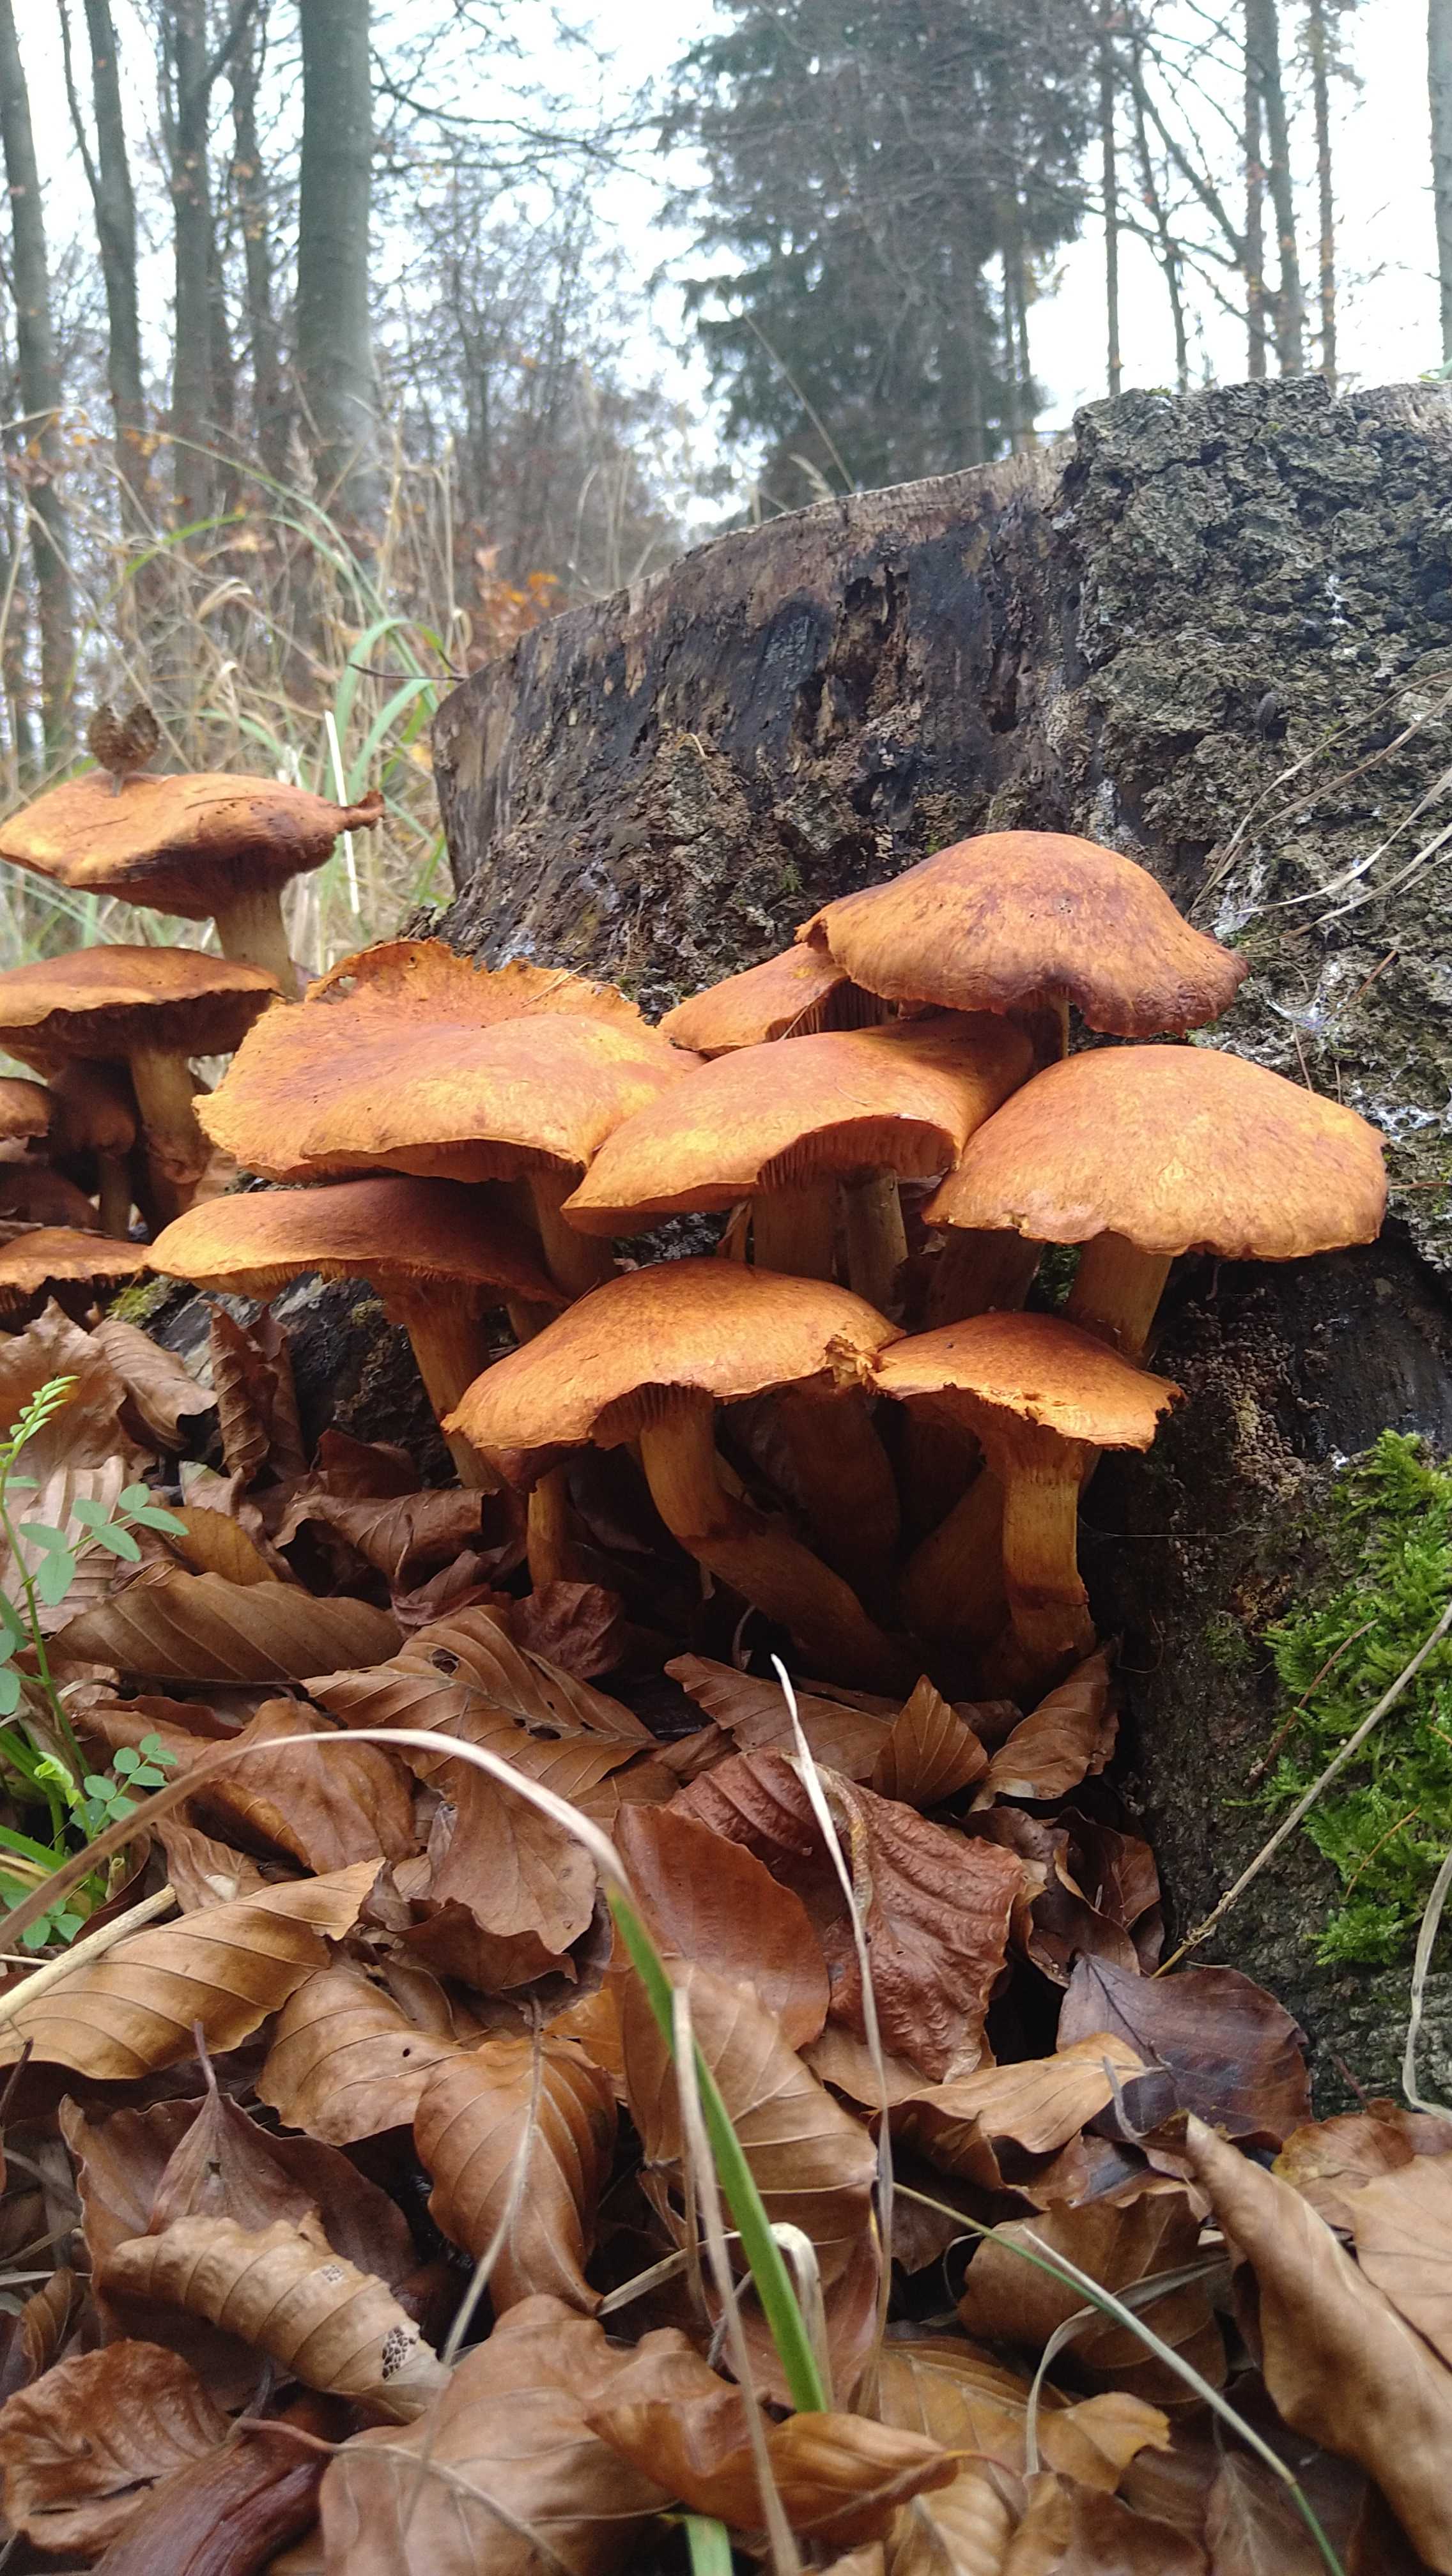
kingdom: Fungi
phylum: Basidiomycota
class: Agaricomycetes
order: Agaricales
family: Hymenogastraceae
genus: Gymnopilus
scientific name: Gymnopilus spectabilis
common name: fibret flammehat
